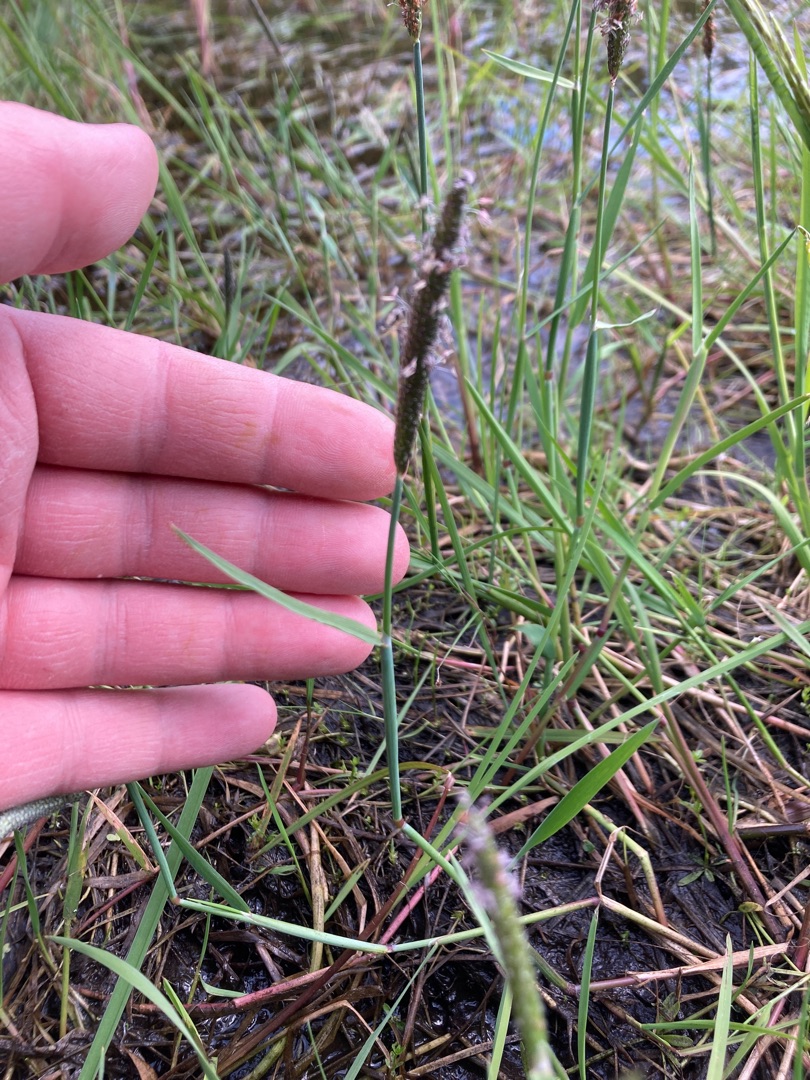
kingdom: Plantae
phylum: Tracheophyta
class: Liliopsida
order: Poales
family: Poaceae
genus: Alopecurus
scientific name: Alopecurus geniculatus
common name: Knæbøjet rævehale
